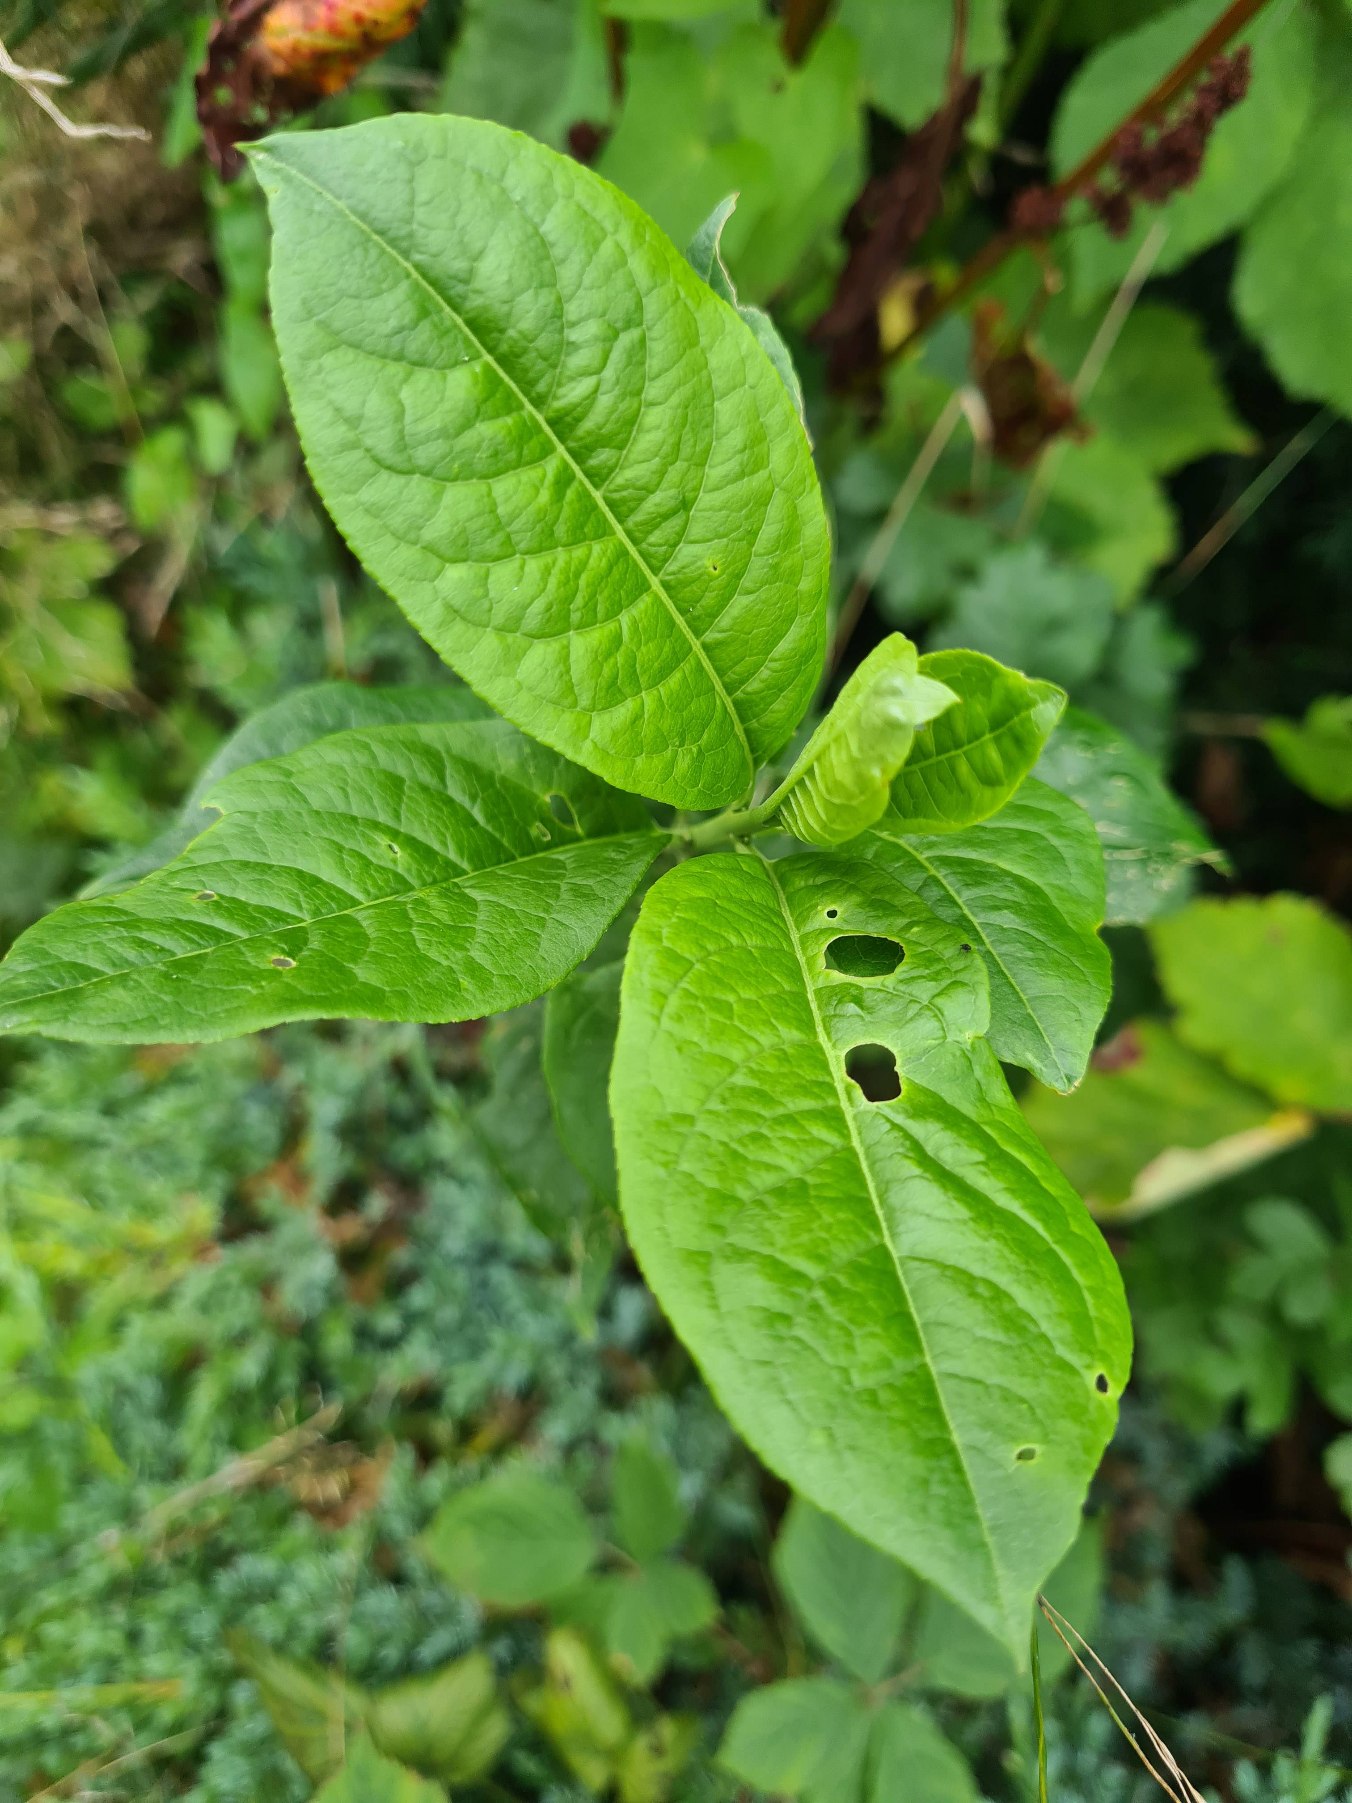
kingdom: Plantae
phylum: Tracheophyta
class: Magnoliopsida
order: Celastrales
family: Celastraceae
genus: Euonymus
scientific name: Euonymus europaeus
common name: Benved
